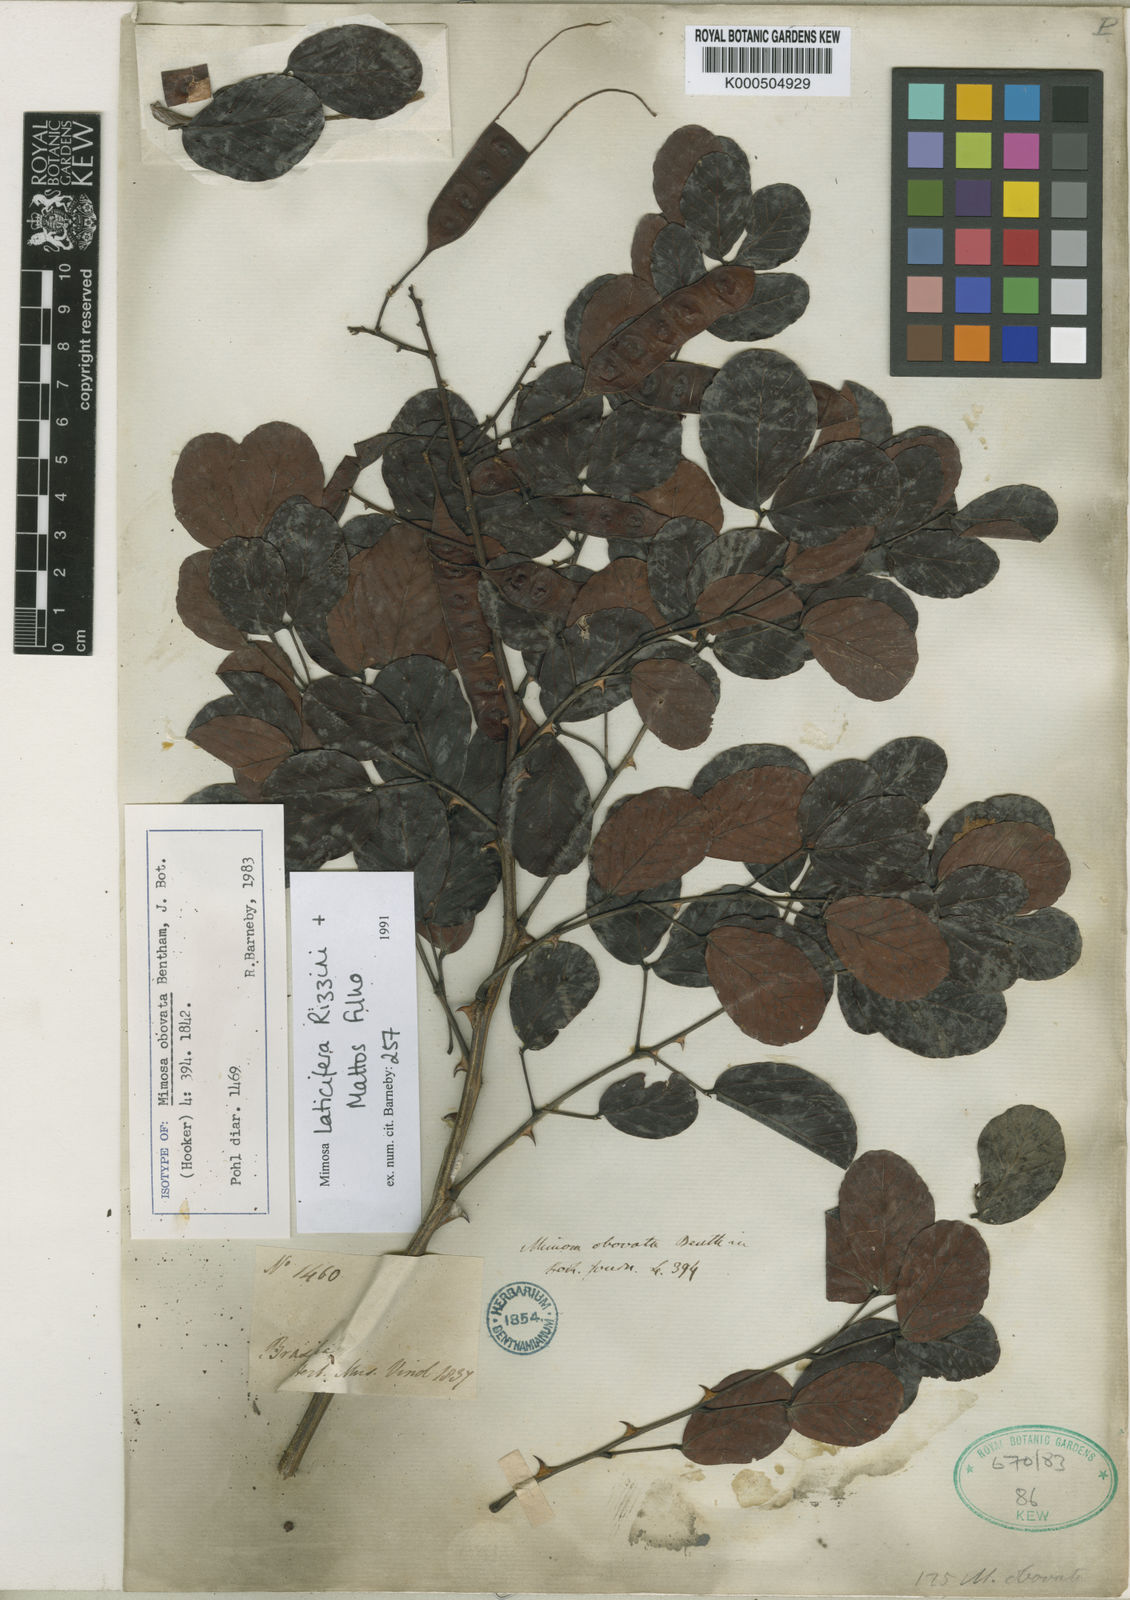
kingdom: Plantae
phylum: Tracheophyta
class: Magnoliopsida
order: Fabales
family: Fabaceae
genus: Mimosa
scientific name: Mimosa laticifera
